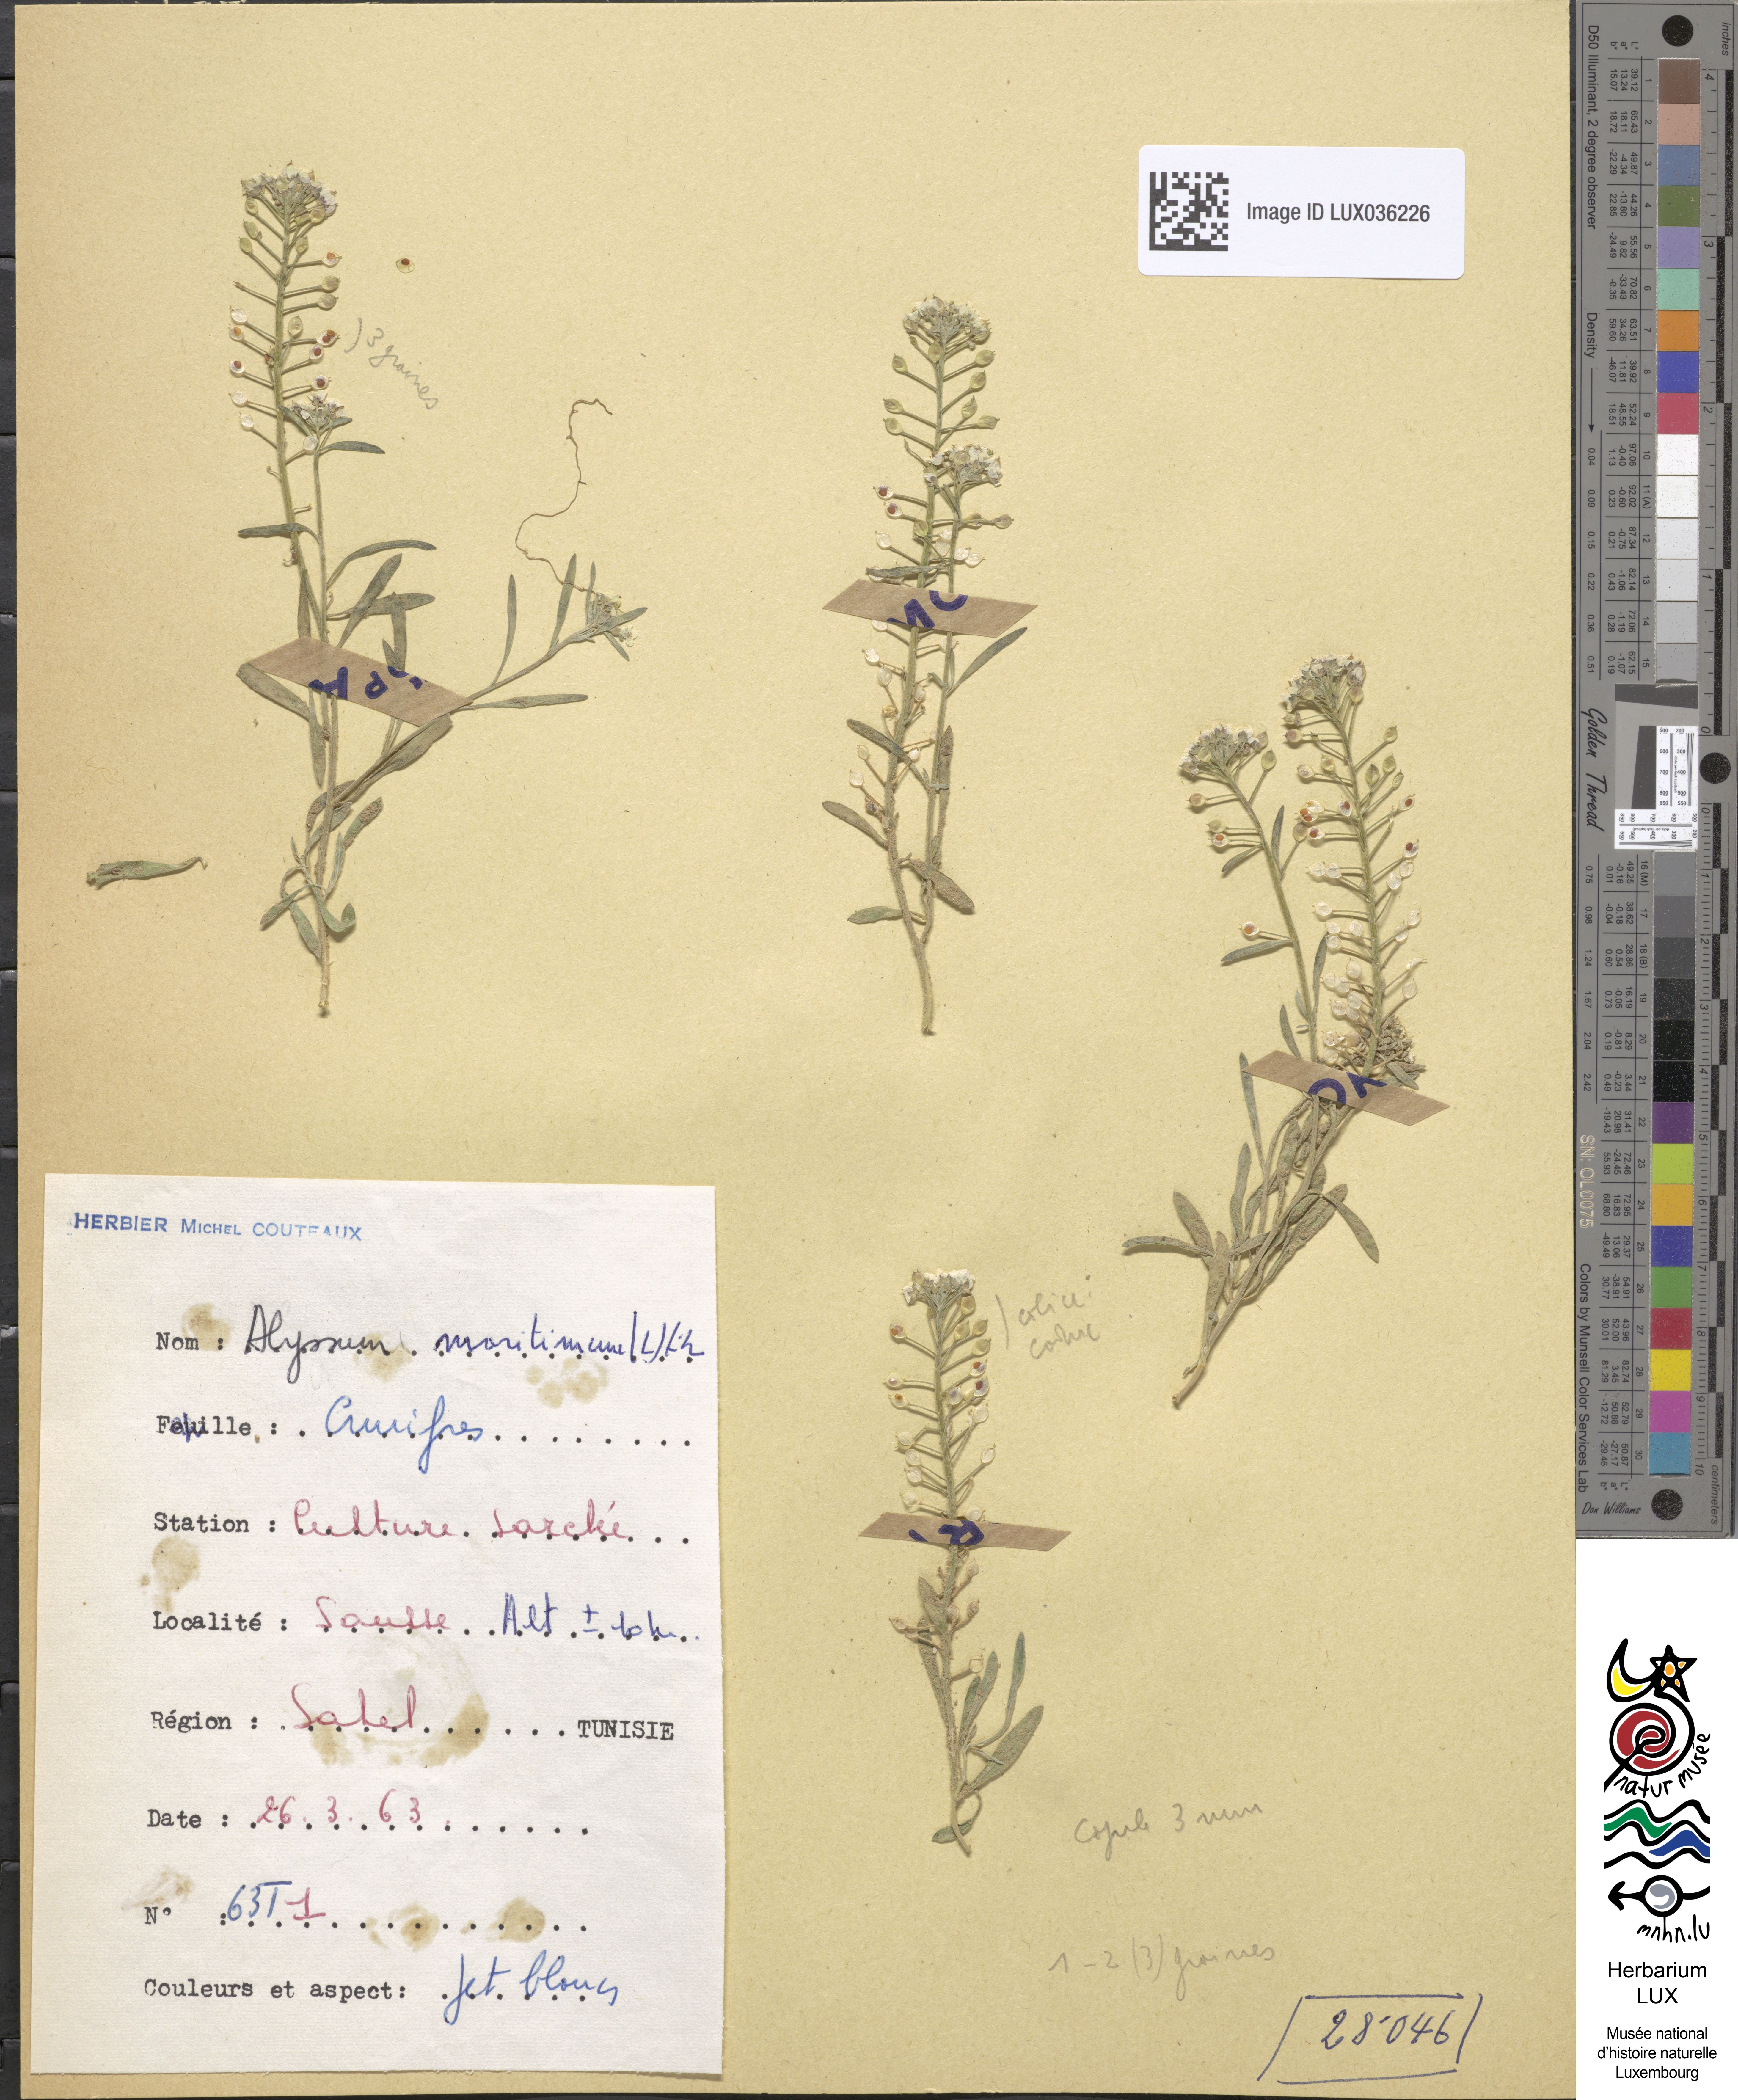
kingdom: Plantae
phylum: Tracheophyta
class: Magnoliopsida
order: Brassicales
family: Brassicaceae
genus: Lobularia
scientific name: Lobularia maritima
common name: Sweet alison
